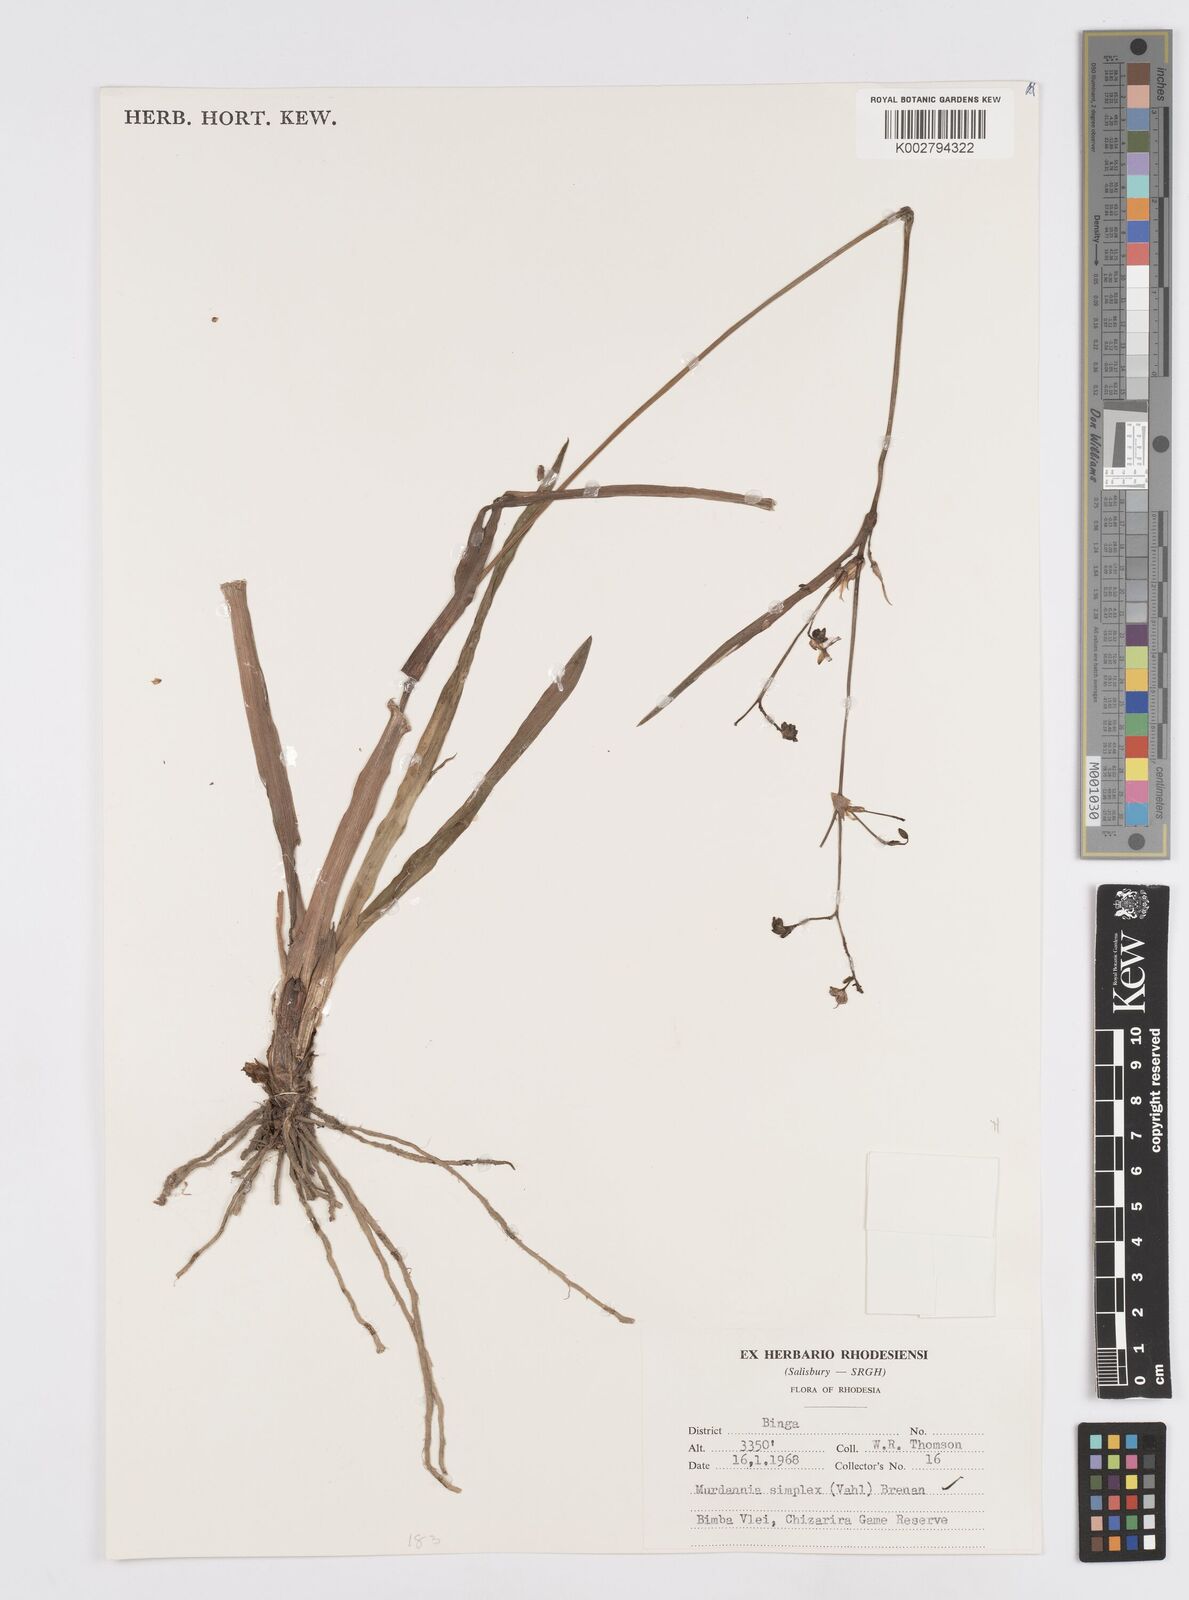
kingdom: Plantae
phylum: Tracheophyta
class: Liliopsida
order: Commelinales
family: Commelinaceae
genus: Murdannia
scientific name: Murdannia simplex
